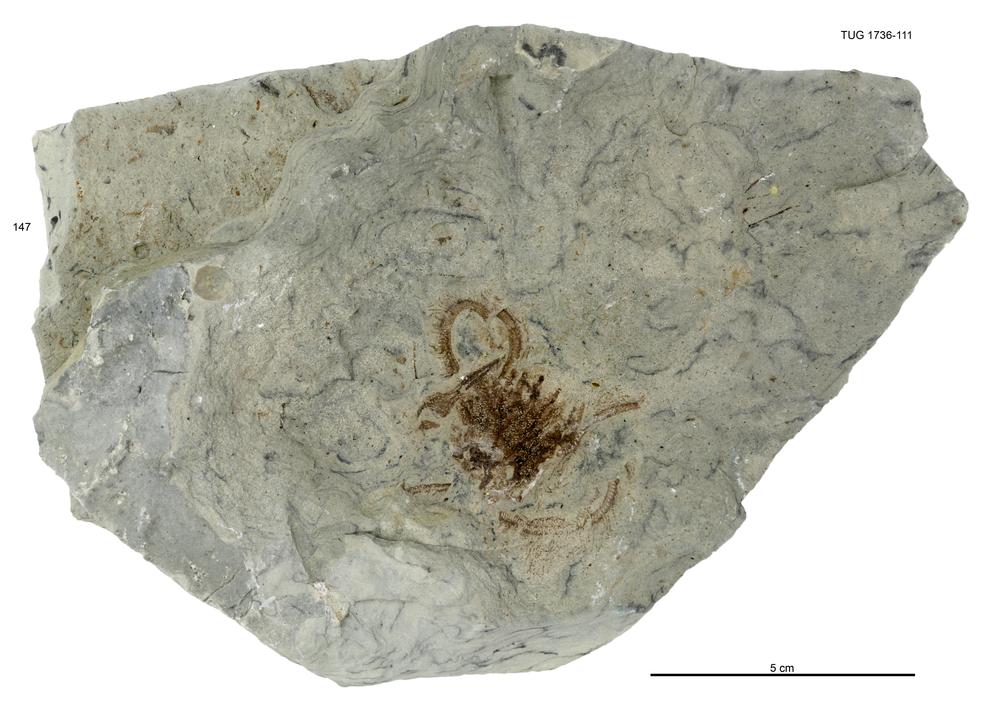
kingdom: Animalia
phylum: Echinodermata
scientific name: Echinodermata
